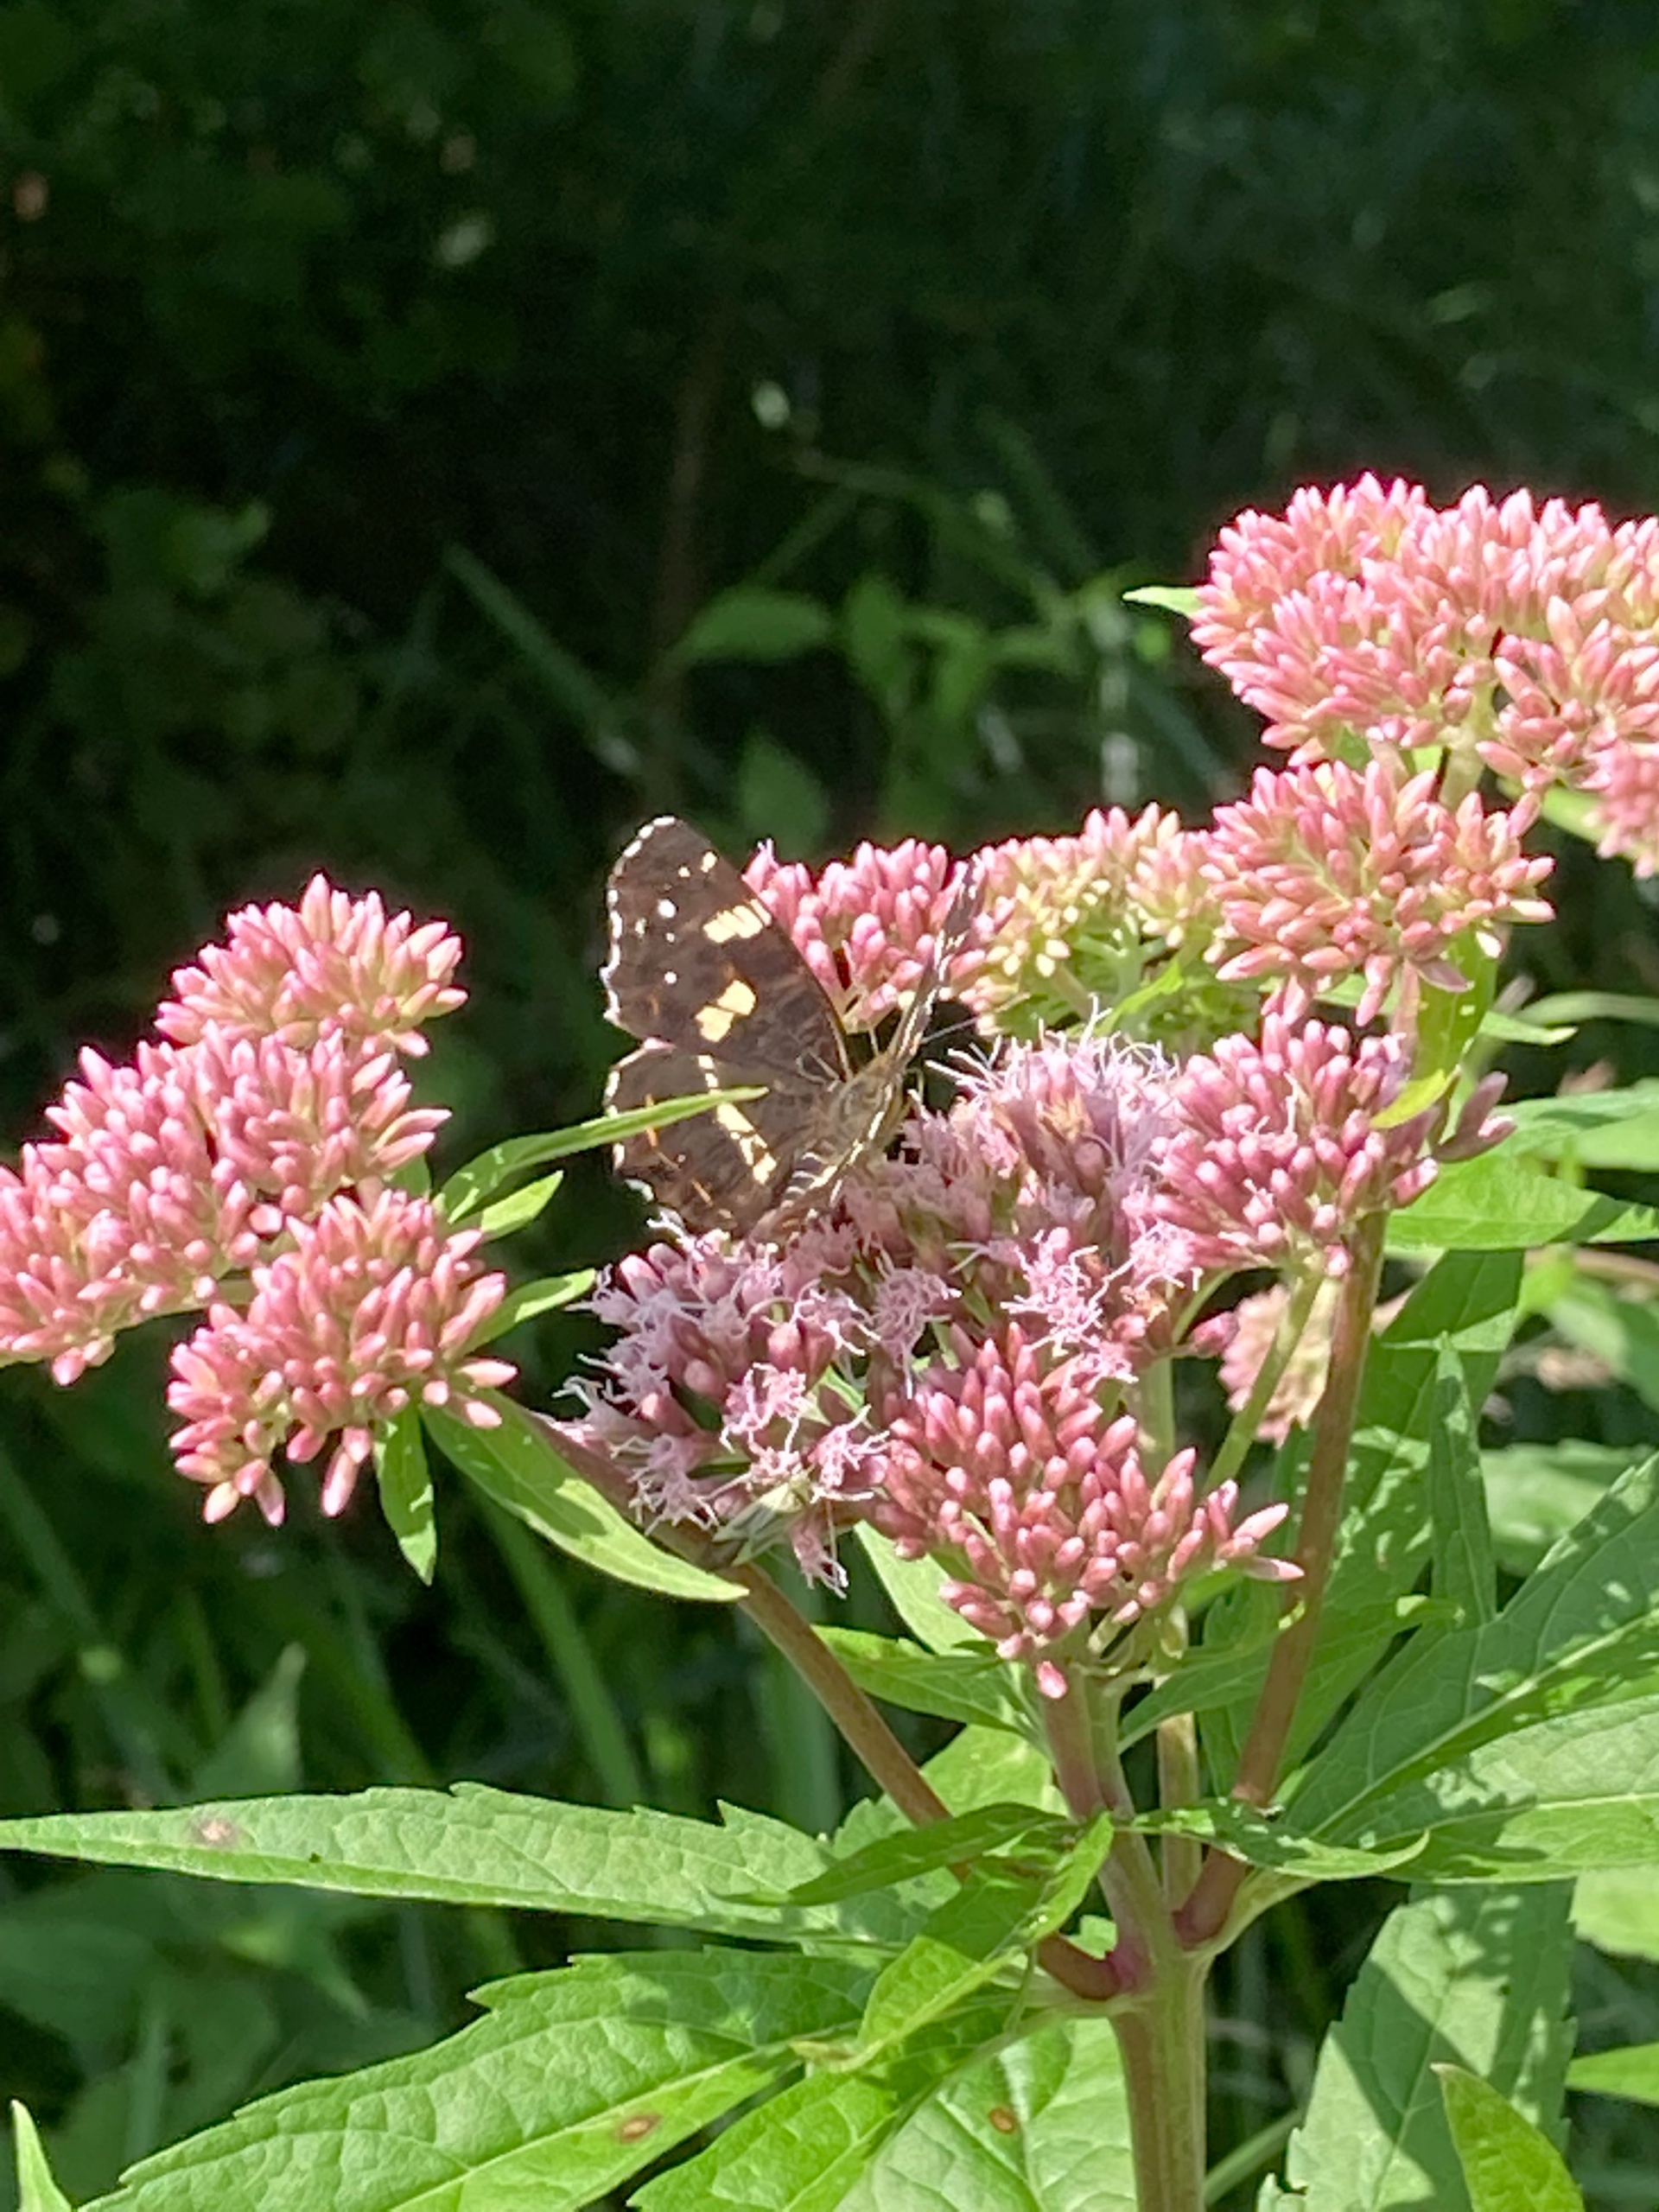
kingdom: Animalia
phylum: Arthropoda
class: Insecta
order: Lepidoptera
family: Nymphalidae
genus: Araschnia
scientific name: Araschnia levana
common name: Nældesommerfugl
